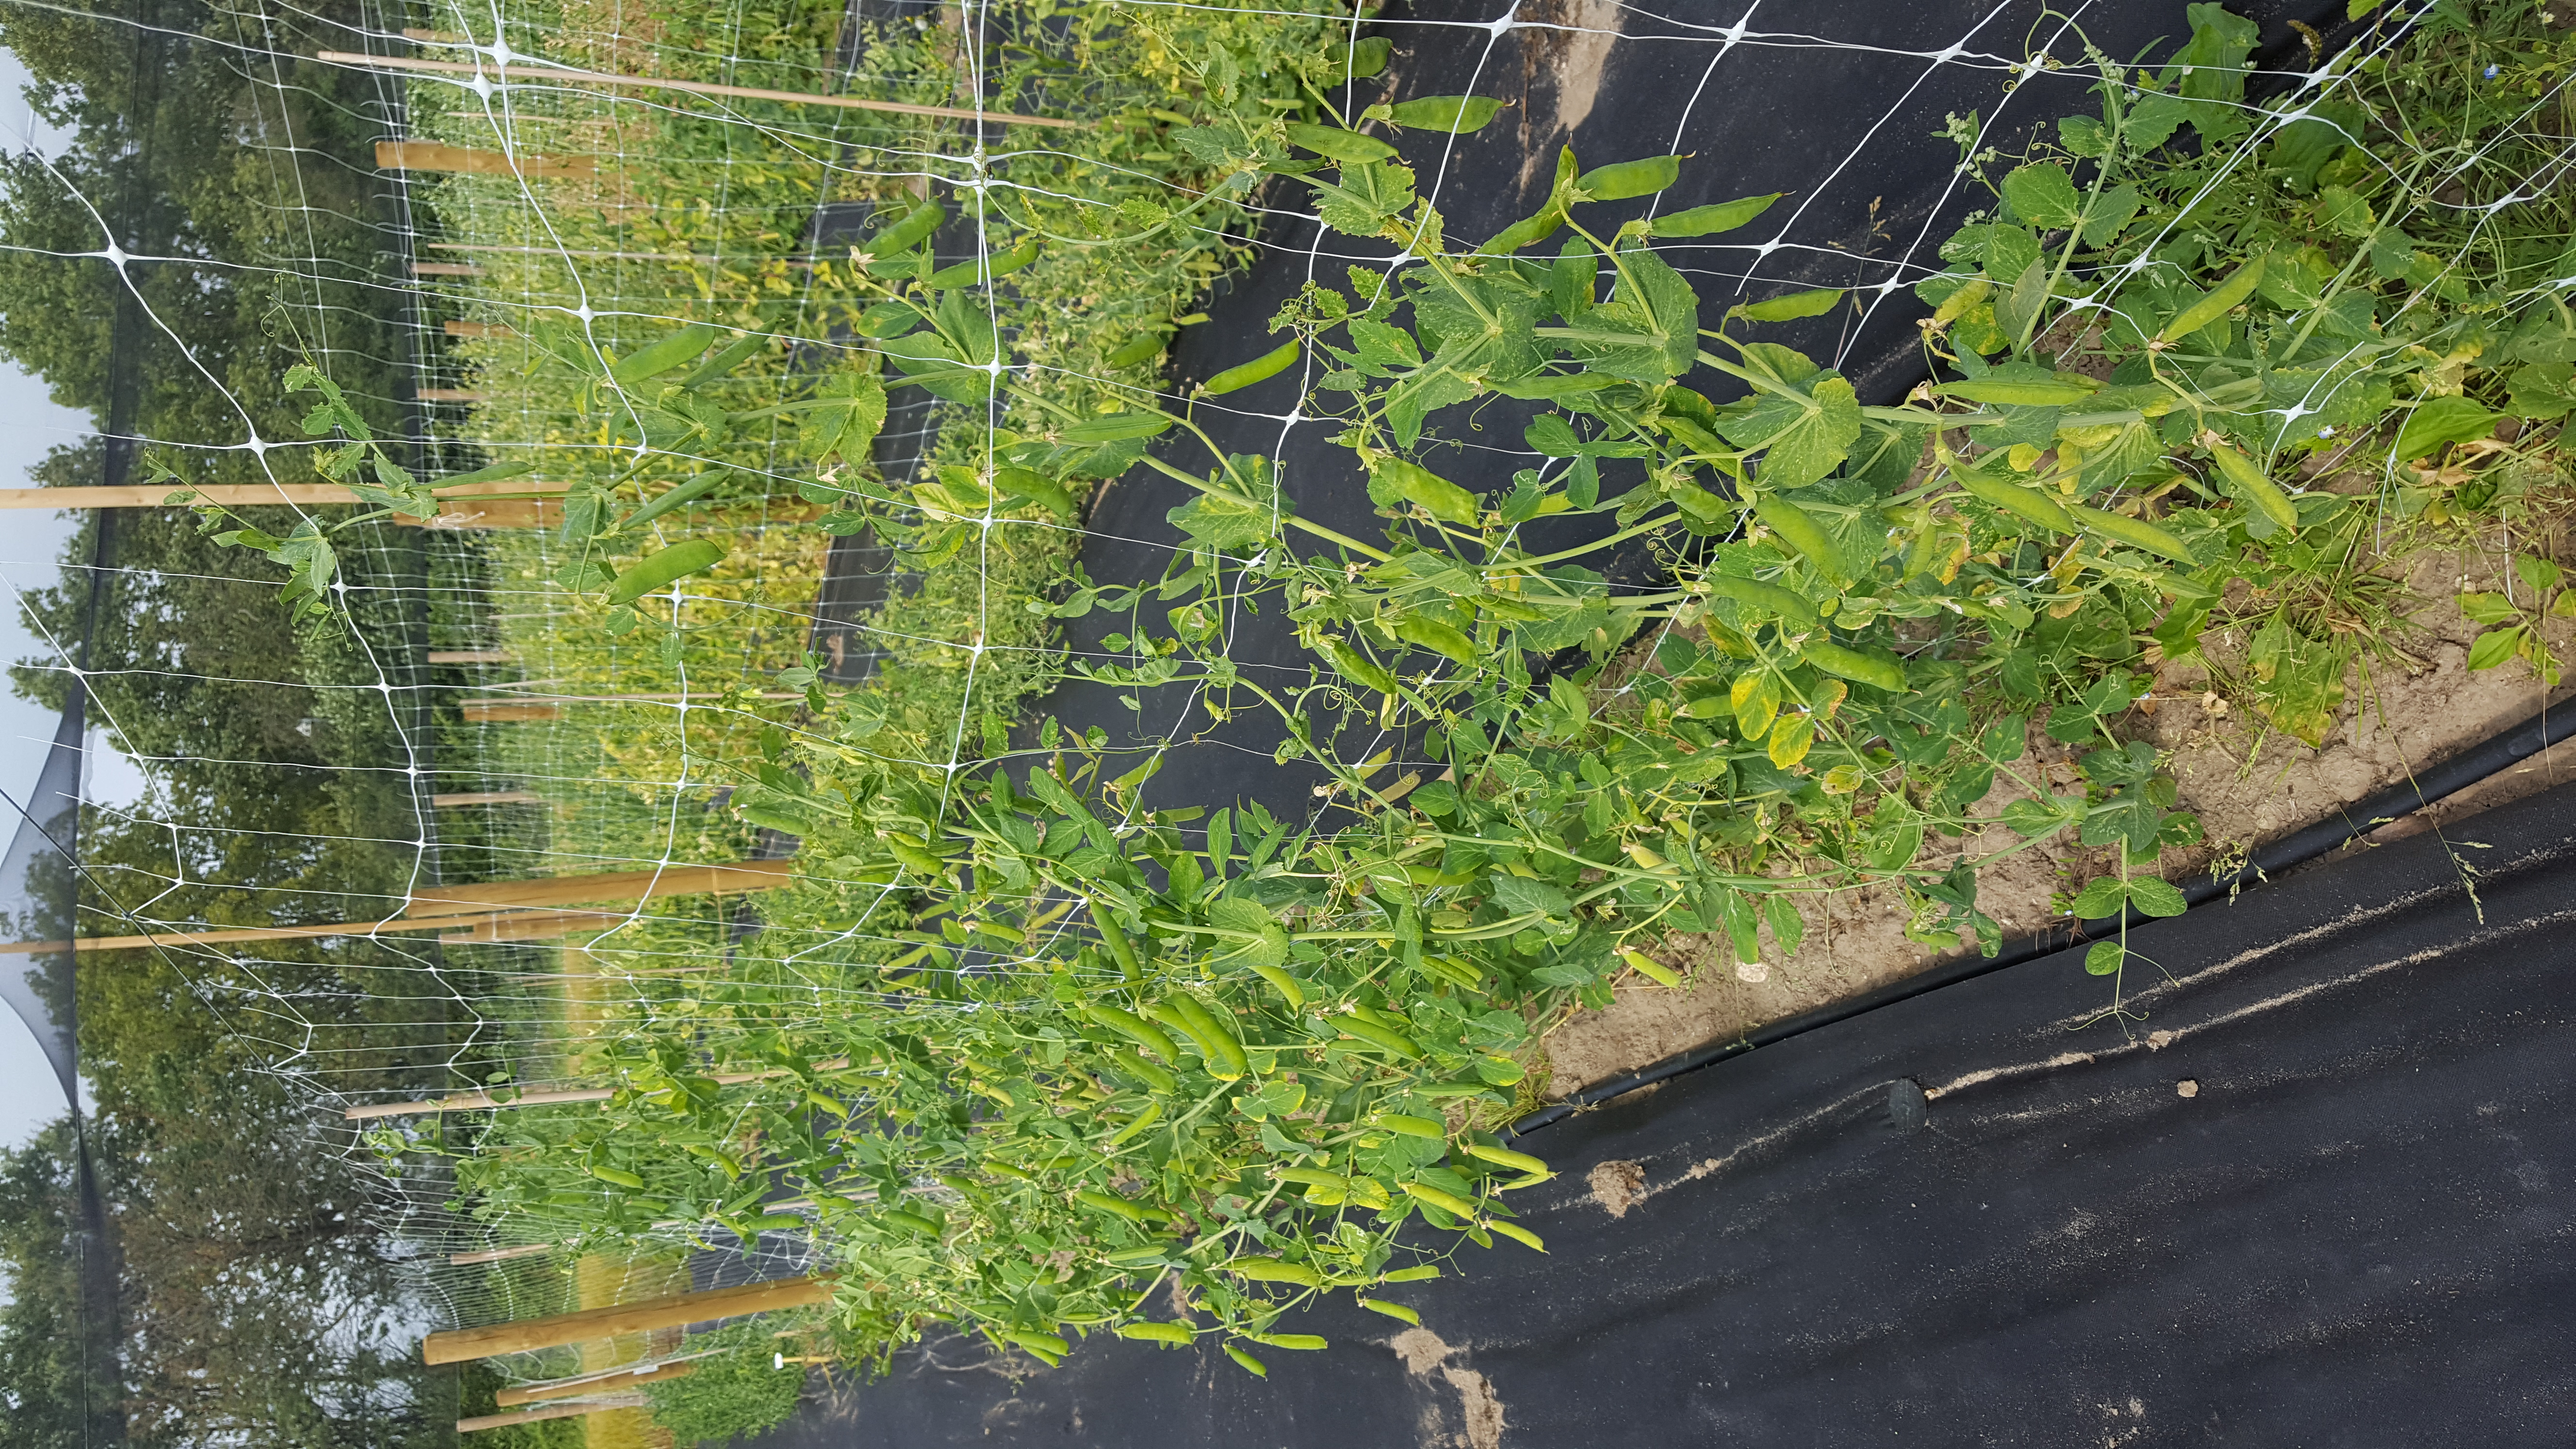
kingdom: Plantae
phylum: Tracheophyta
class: Magnoliopsida
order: Fabales
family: Fabaceae
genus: Lathyrus
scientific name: Lathyrus oleraceus
